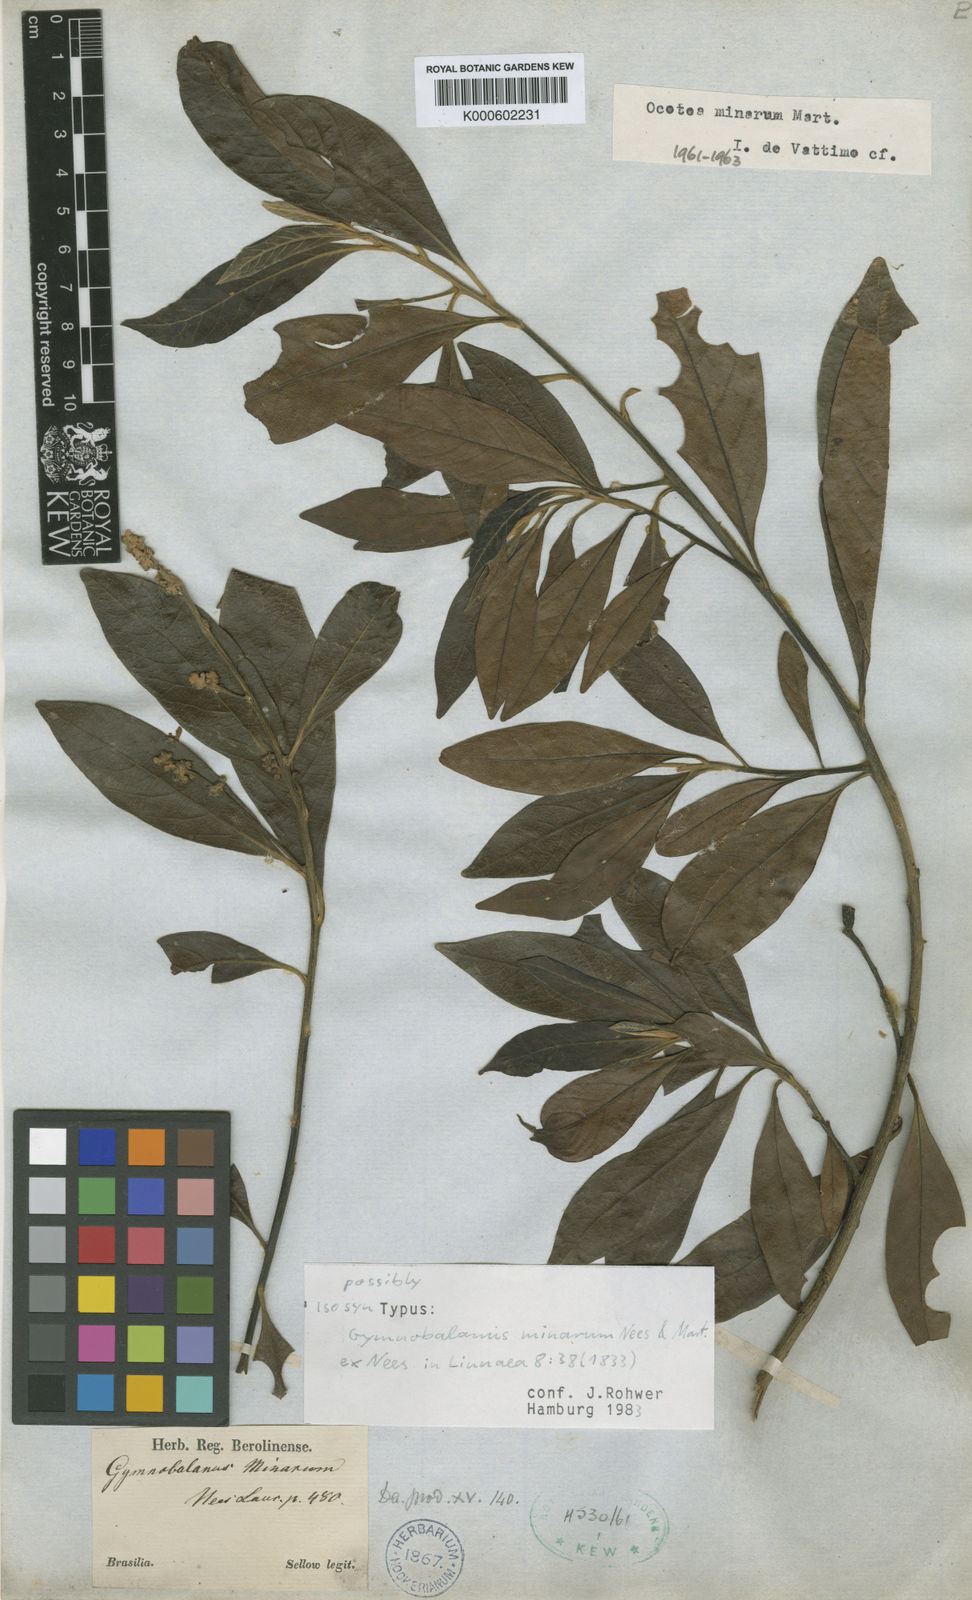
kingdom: Plantae
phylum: Tracheophyta
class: Magnoliopsida
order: Laurales
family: Lauraceae
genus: Ocotea
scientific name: Ocotea minarum
